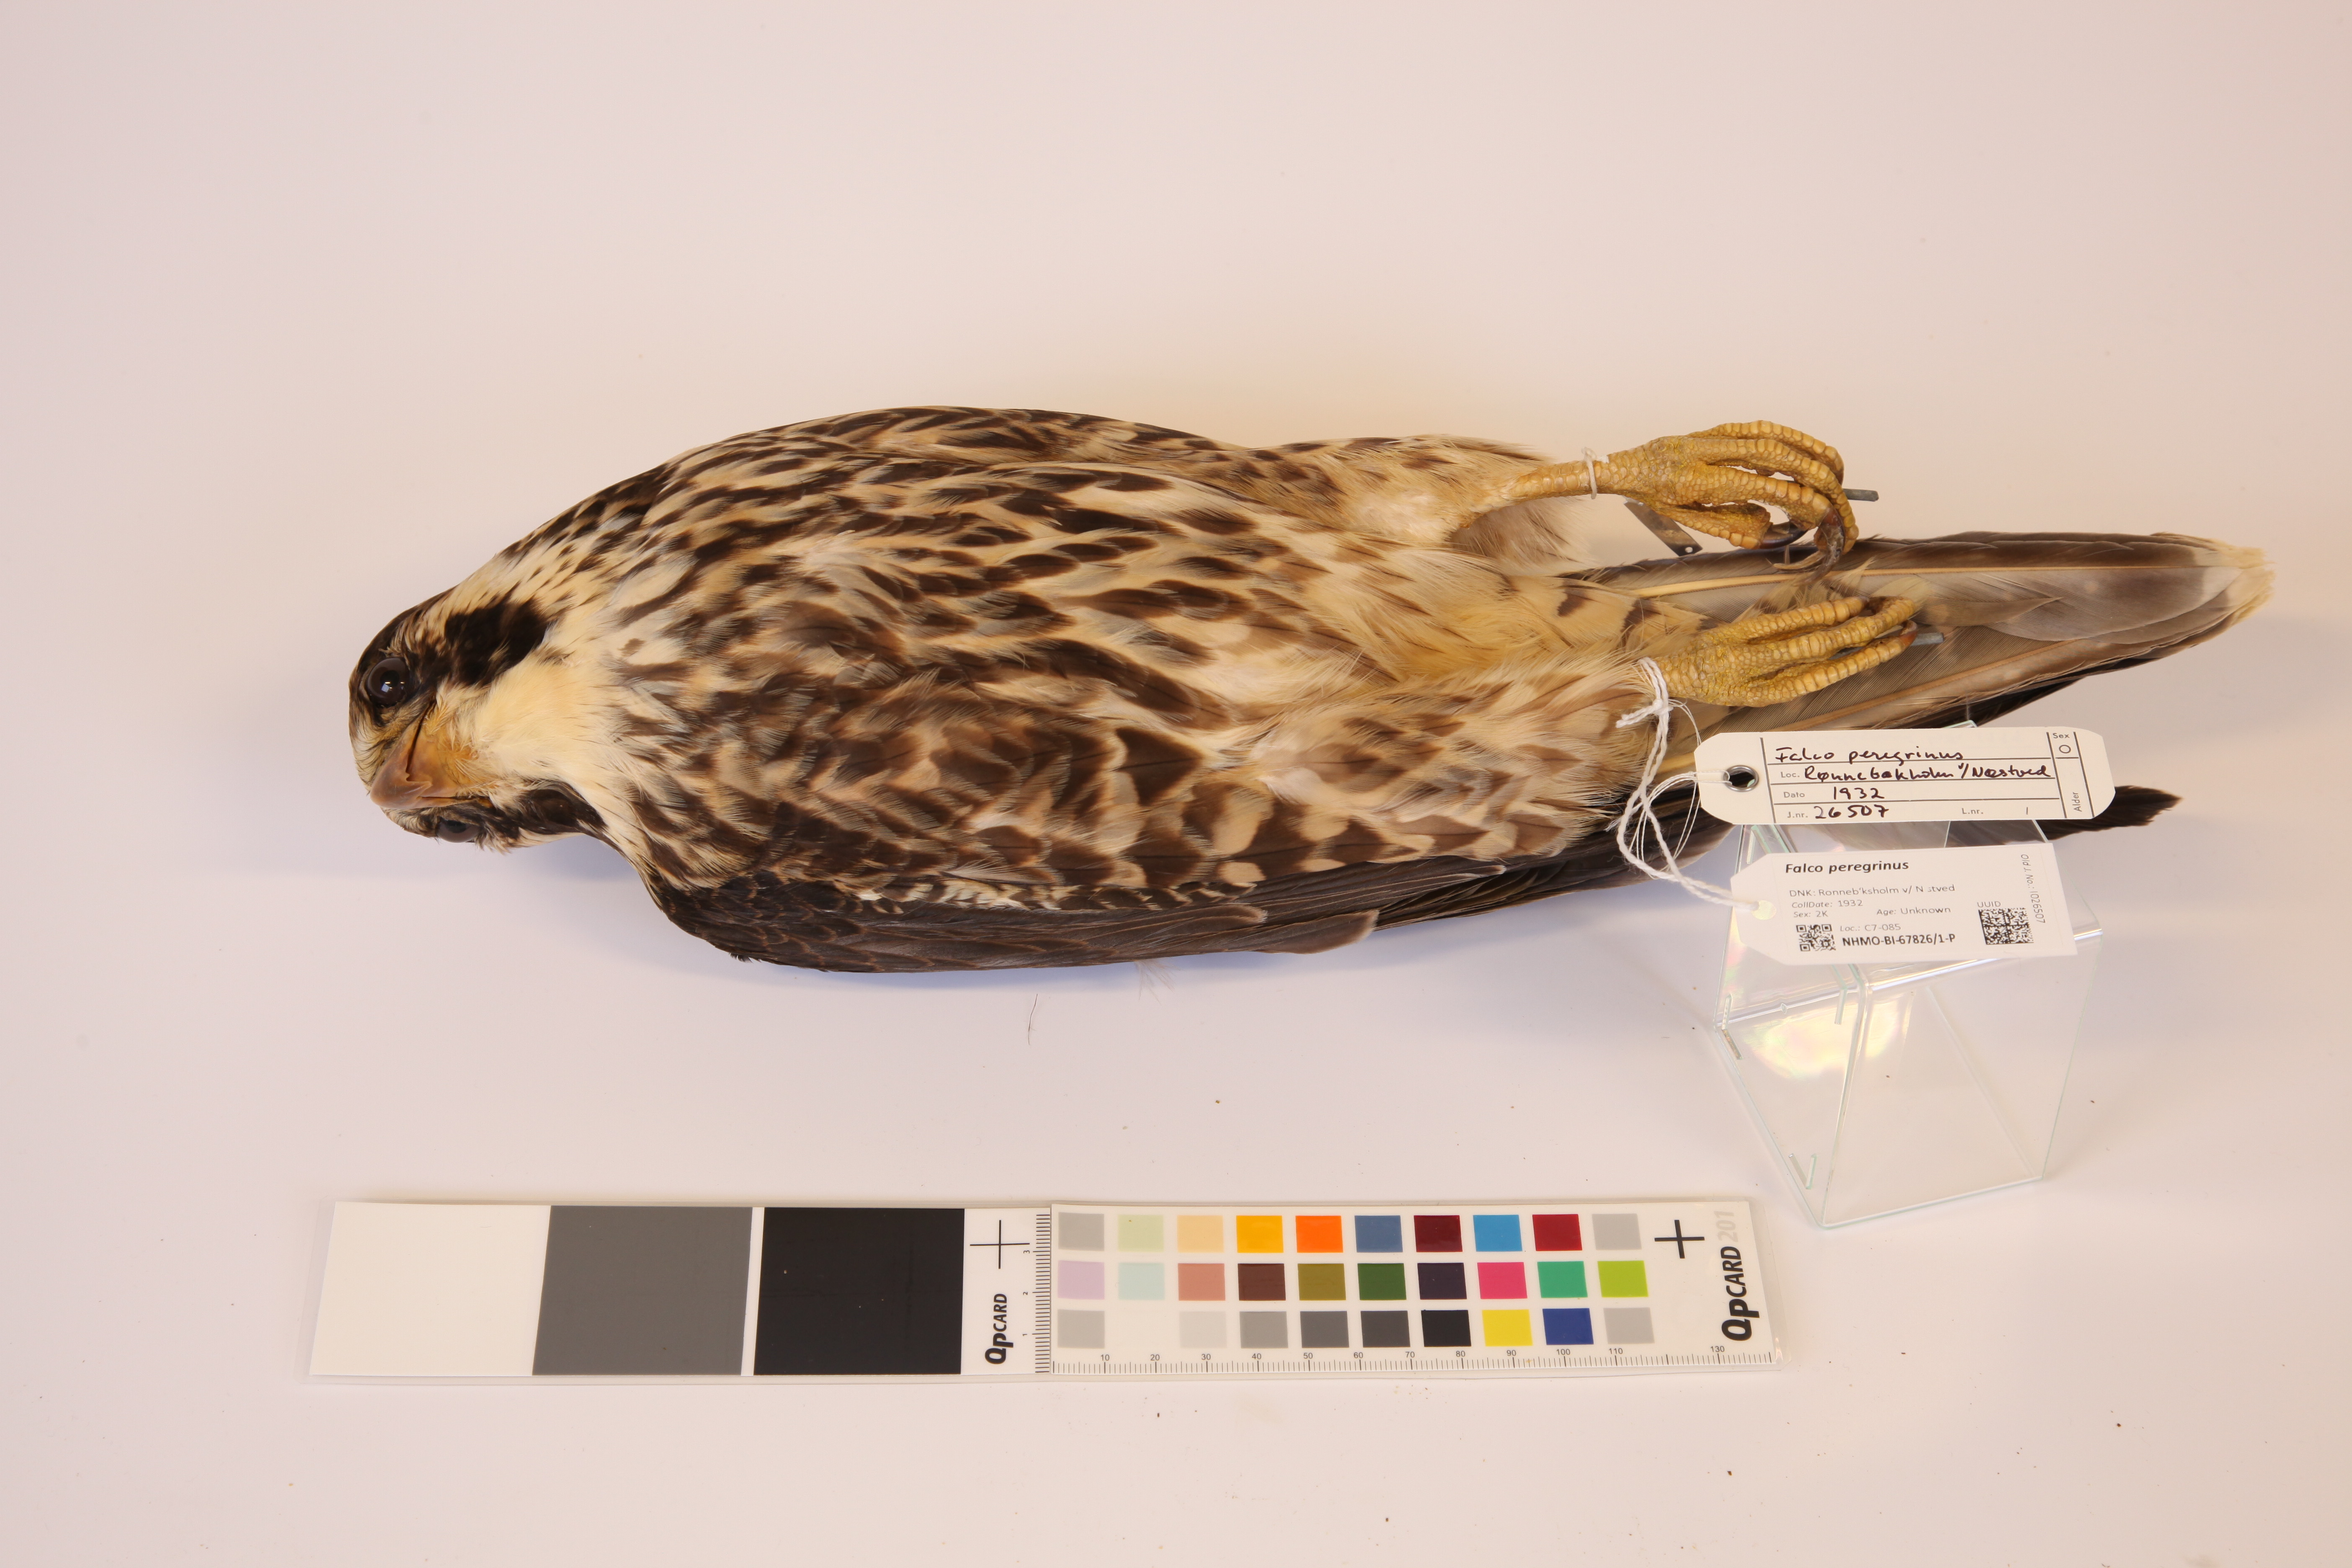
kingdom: Animalia
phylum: Chordata
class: Aves
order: Falconiformes
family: Falconidae
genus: Falco
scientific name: Falco peregrinus
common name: Peregrine falcon
